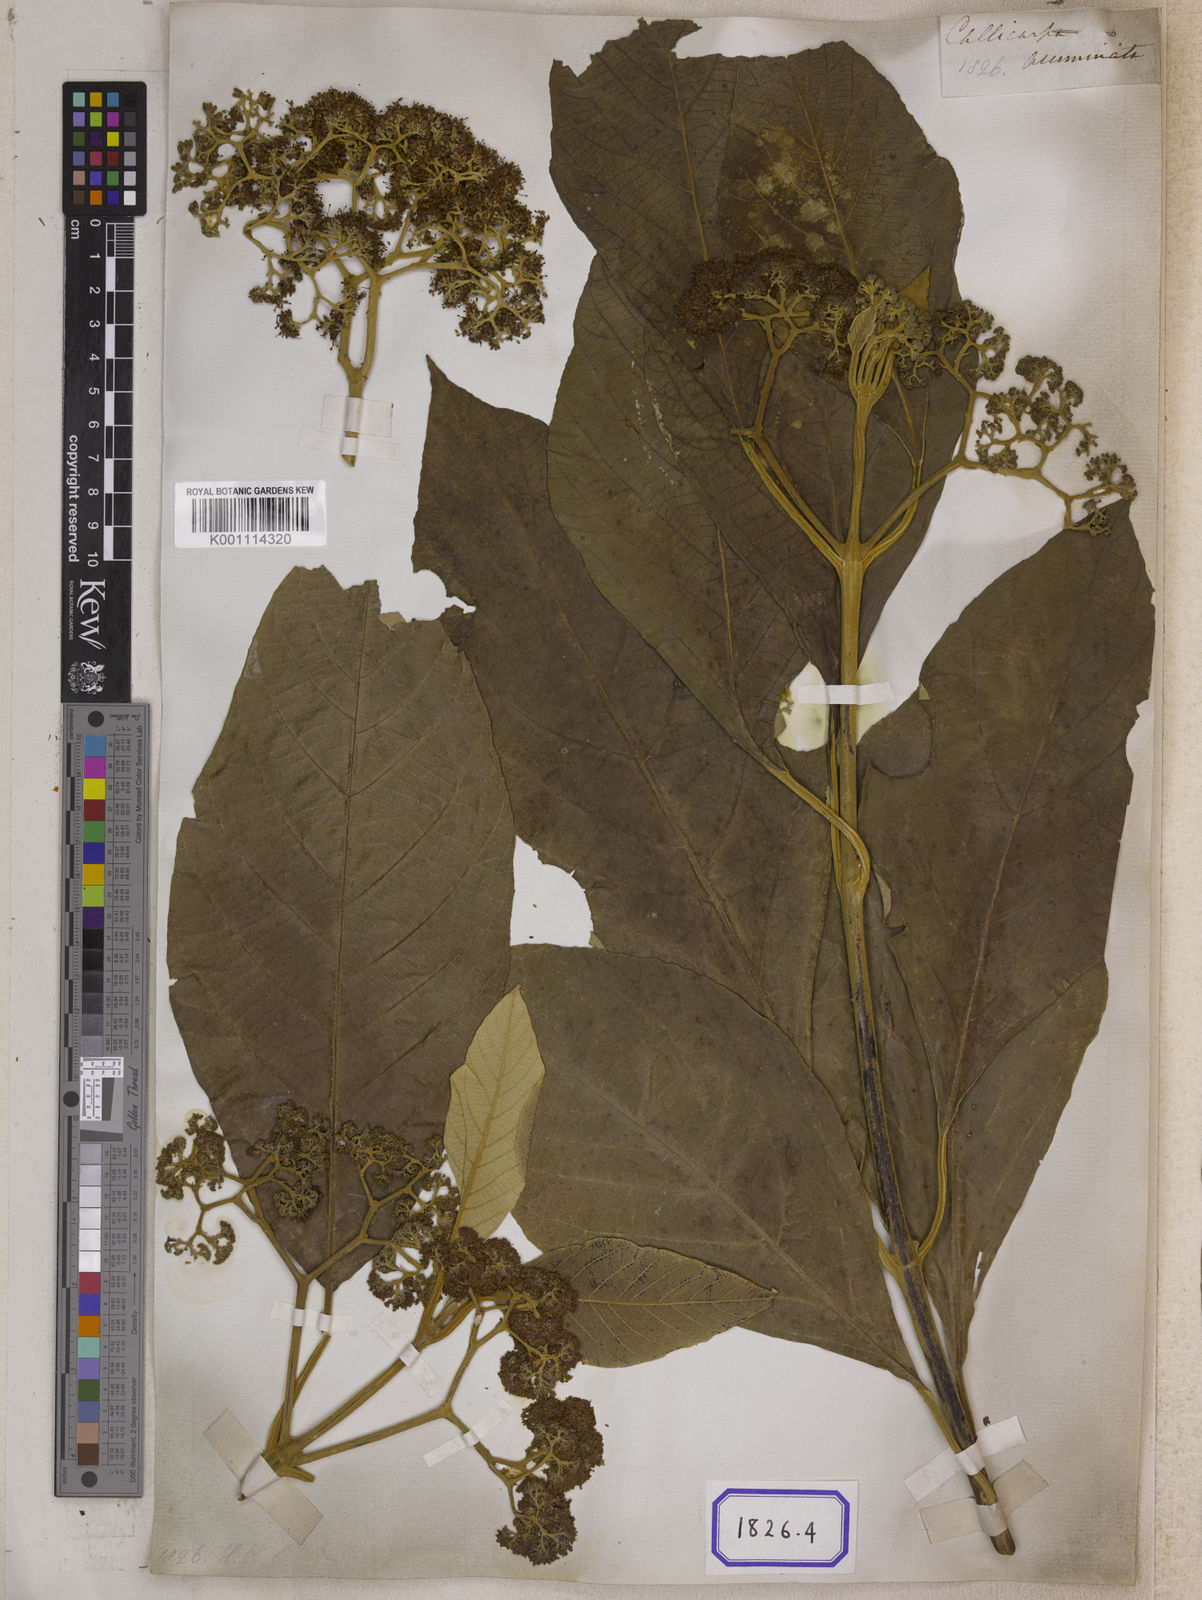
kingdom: Plantae
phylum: Tracheophyta
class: Magnoliopsida
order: Lamiales
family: Lamiaceae
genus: Callicarpa
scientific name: Callicarpa arborea
